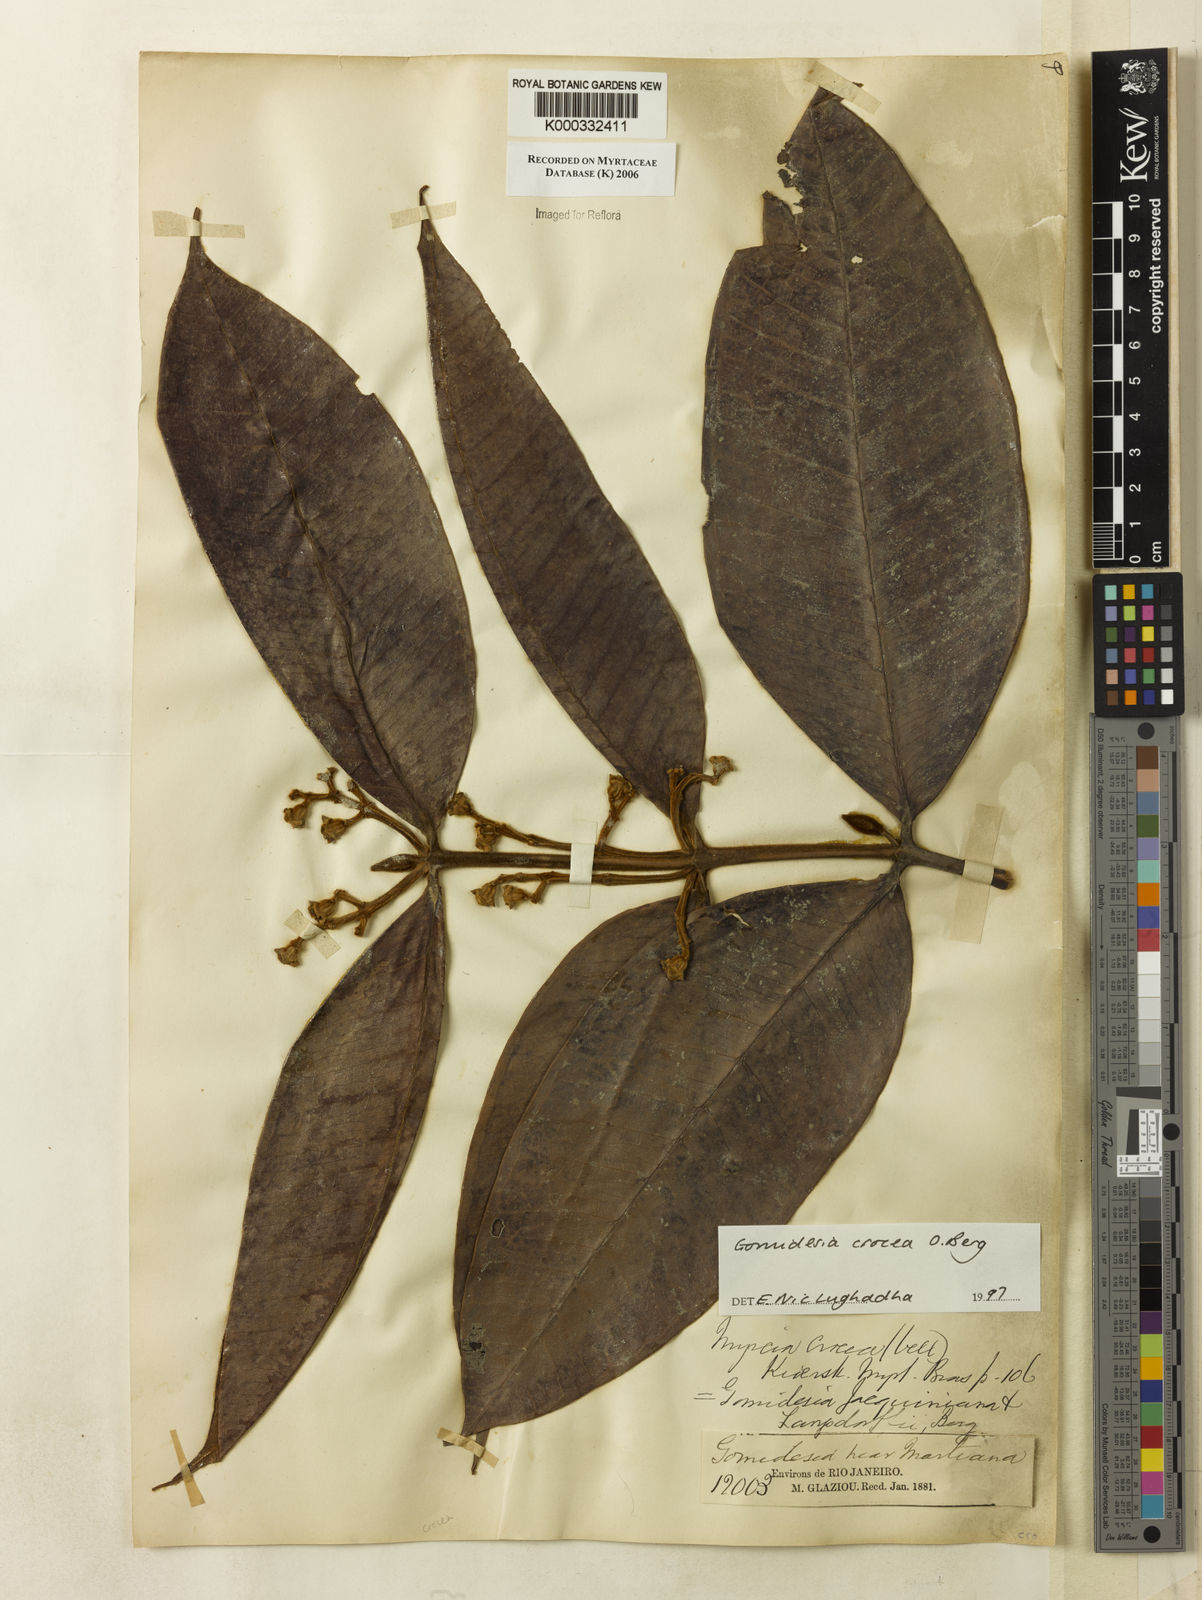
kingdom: Plantae
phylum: Tracheophyta
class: Magnoliopsida
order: Myrtales
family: Myrtaceae
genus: Myrcia
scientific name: Myrcia amplexicaulis
